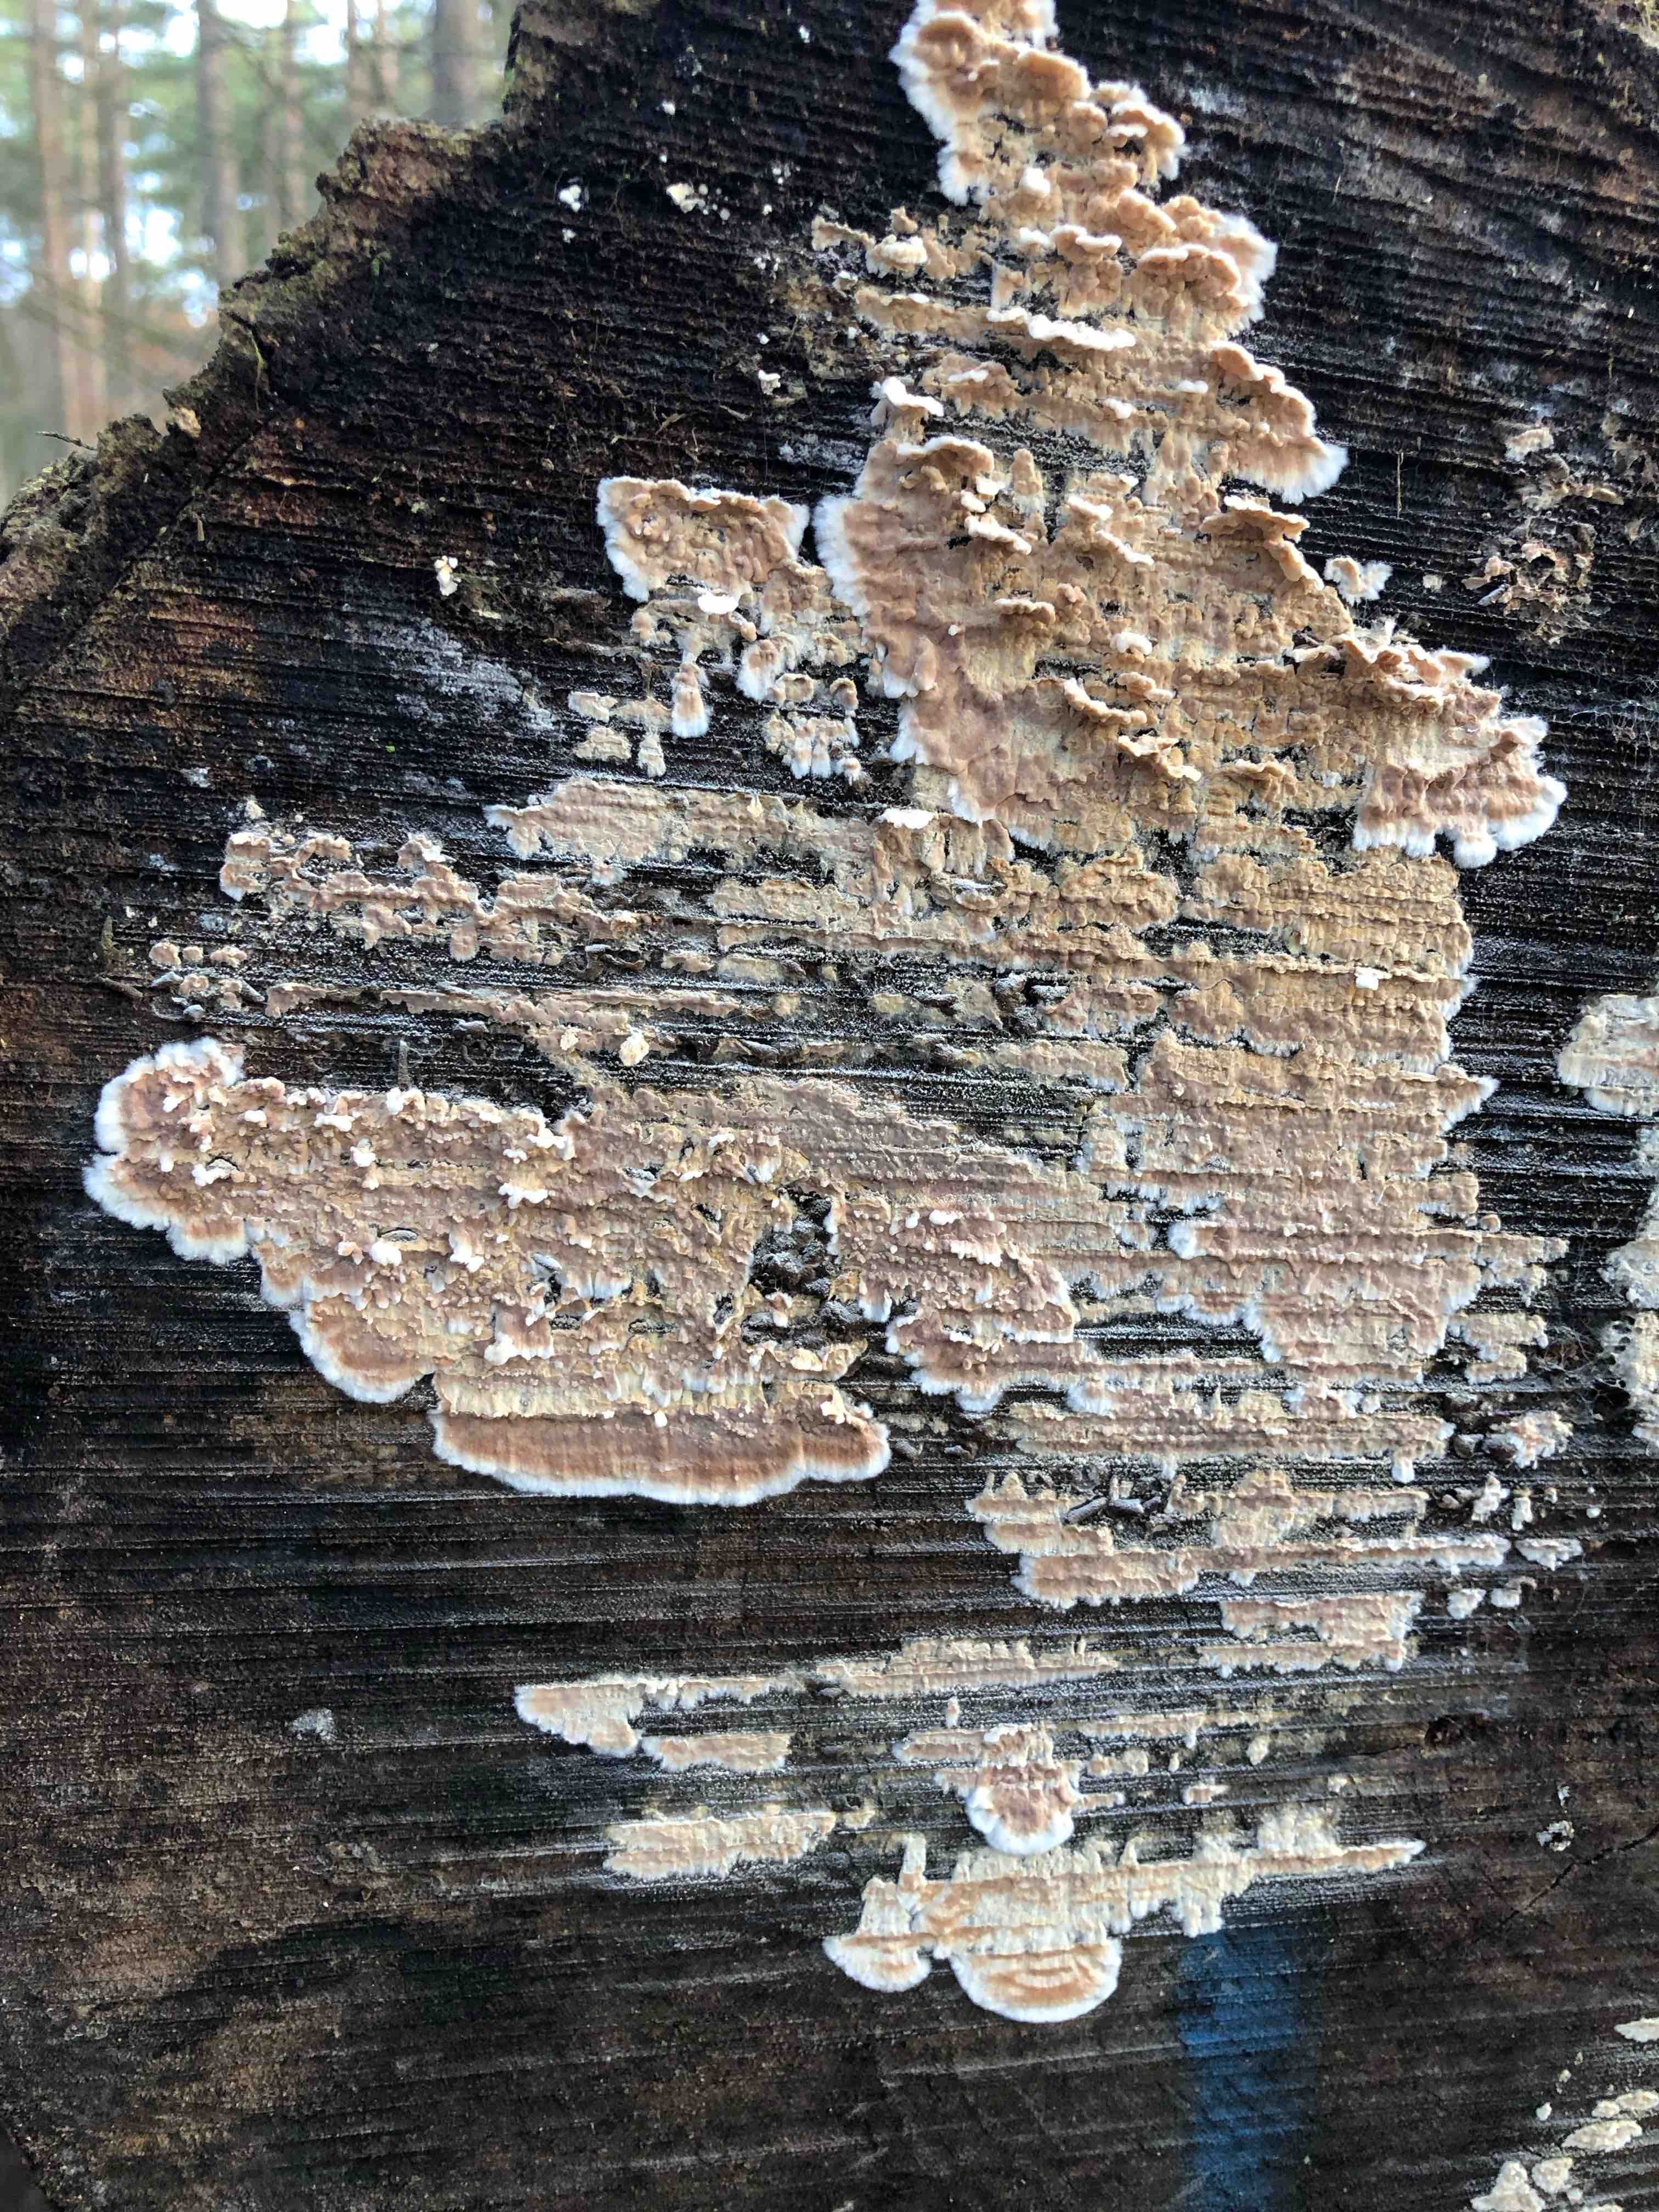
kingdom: Fungi
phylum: Basidiomycota
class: Agaricomycetes
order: Agaricales
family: Physalacriaceae
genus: Cylindrobasidium
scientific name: Cylindrobasidium evolvens
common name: sprækkehinde
